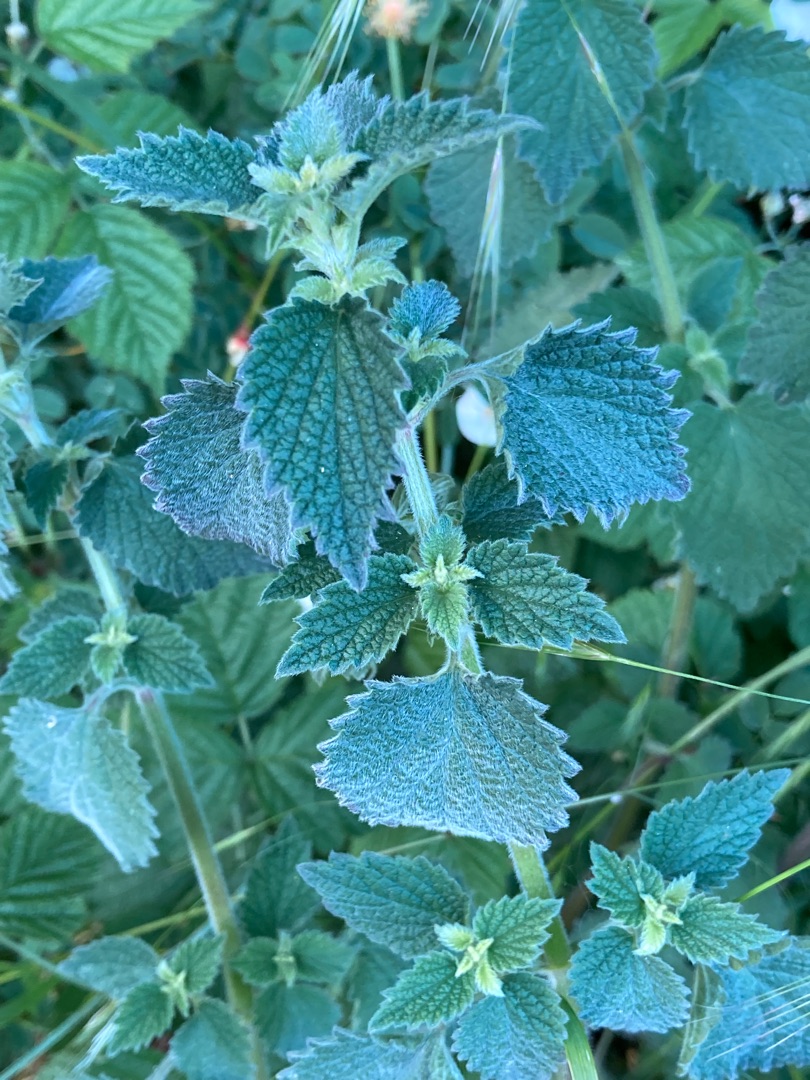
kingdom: Plantae
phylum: Tracheophyta
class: Magnoliopsida
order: Lamiales
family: Lamiaceae
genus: Lamium
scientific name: Lamium album
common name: Døvnælde
